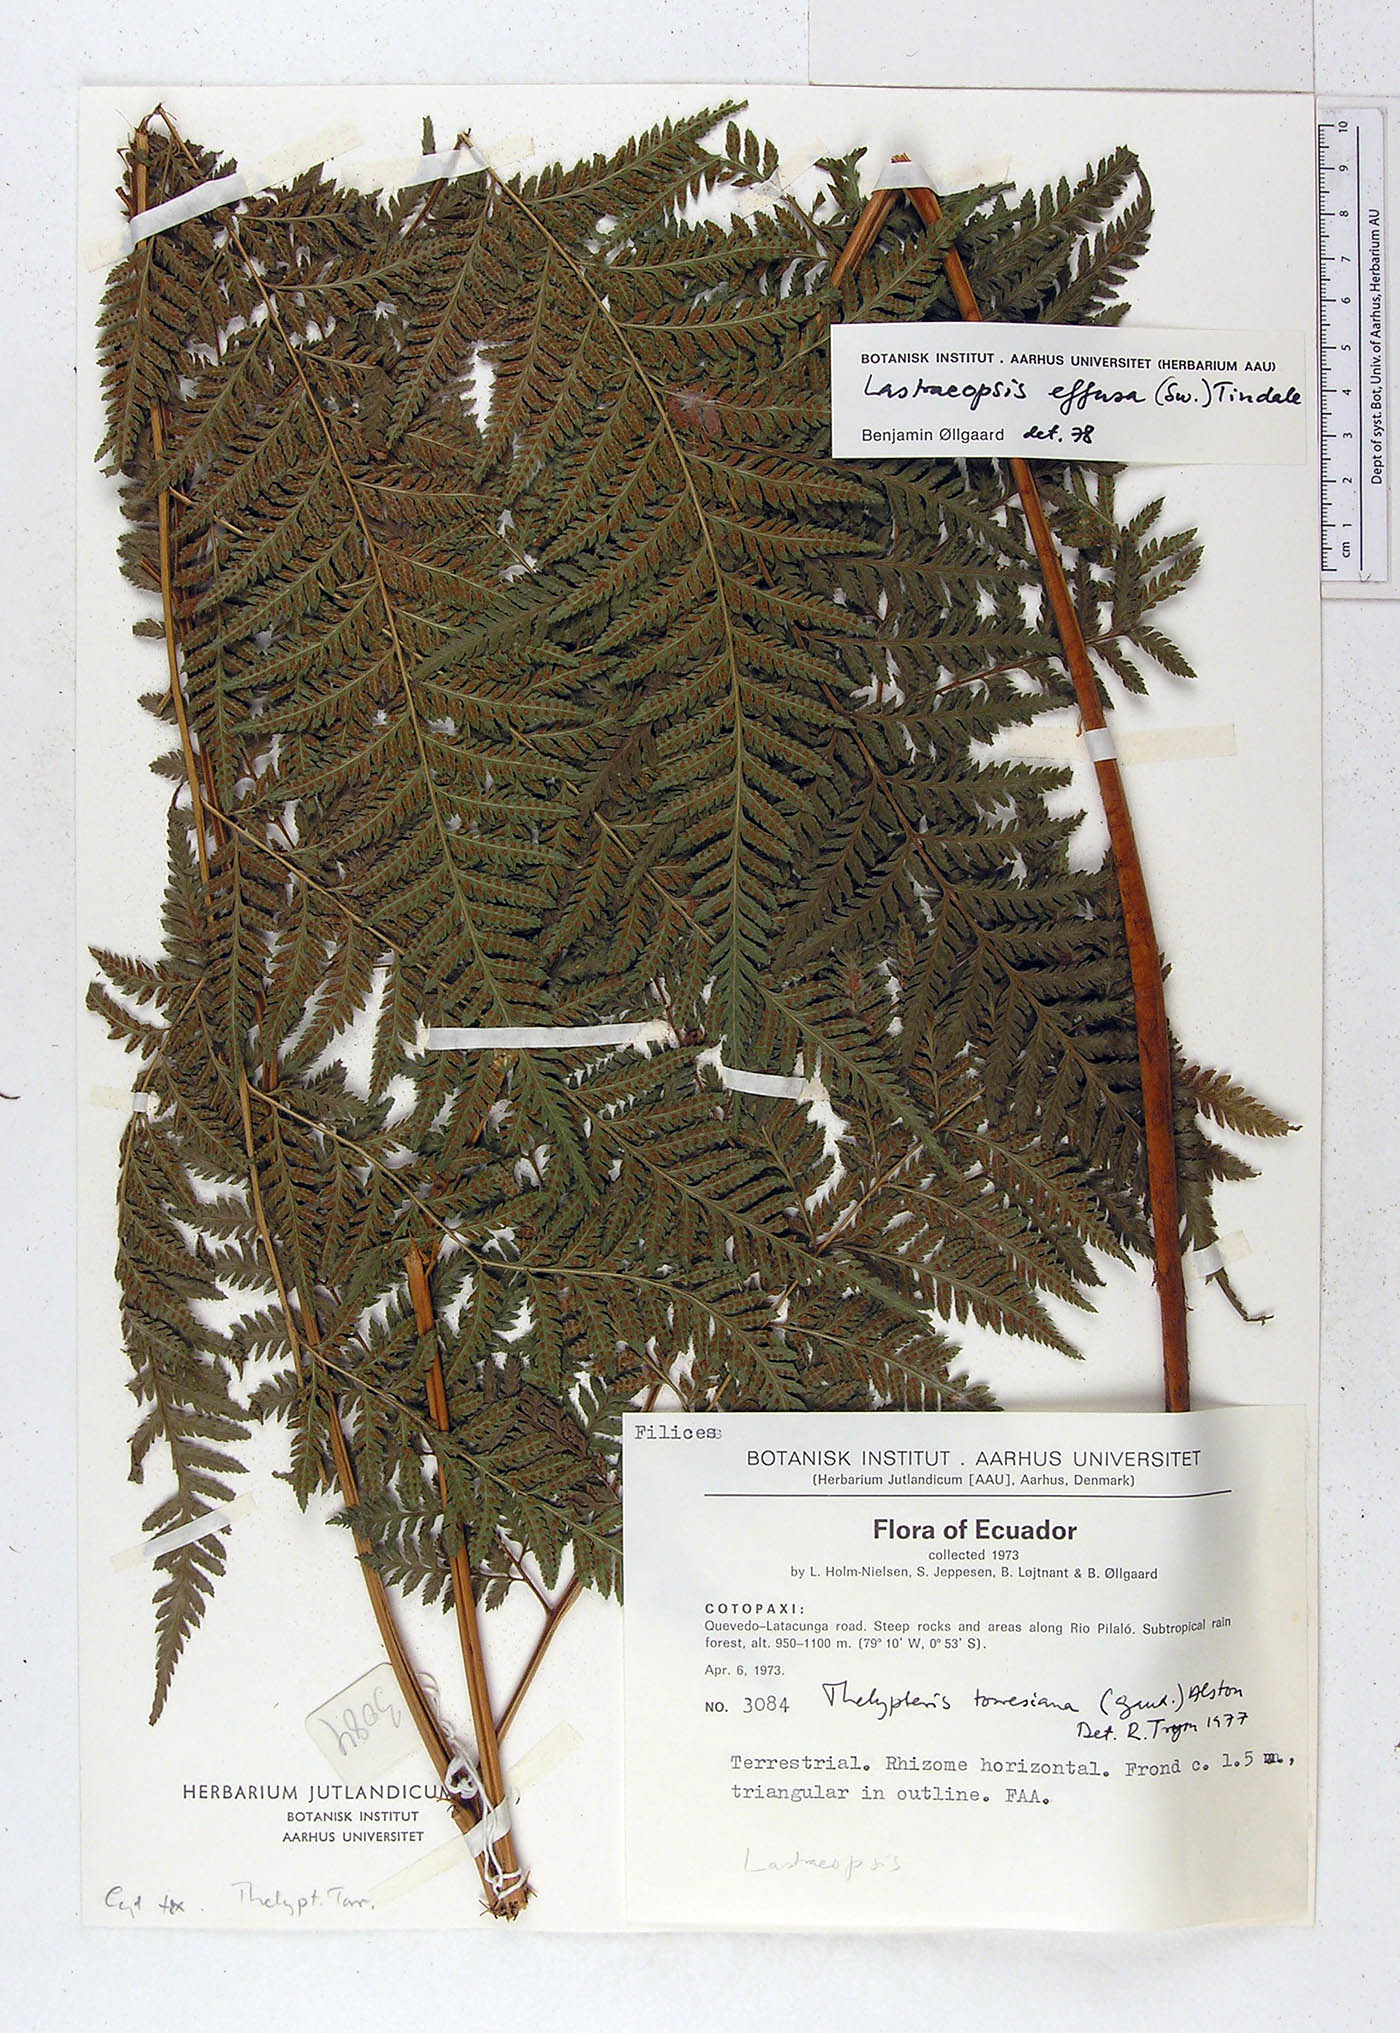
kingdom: Plantae
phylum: Tracheophyta
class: Polypodiopsida
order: Polypodiales
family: Thelypteridaceae
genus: Macrothelypteris
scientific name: Macrothelypteris torresiana
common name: Swordfern
